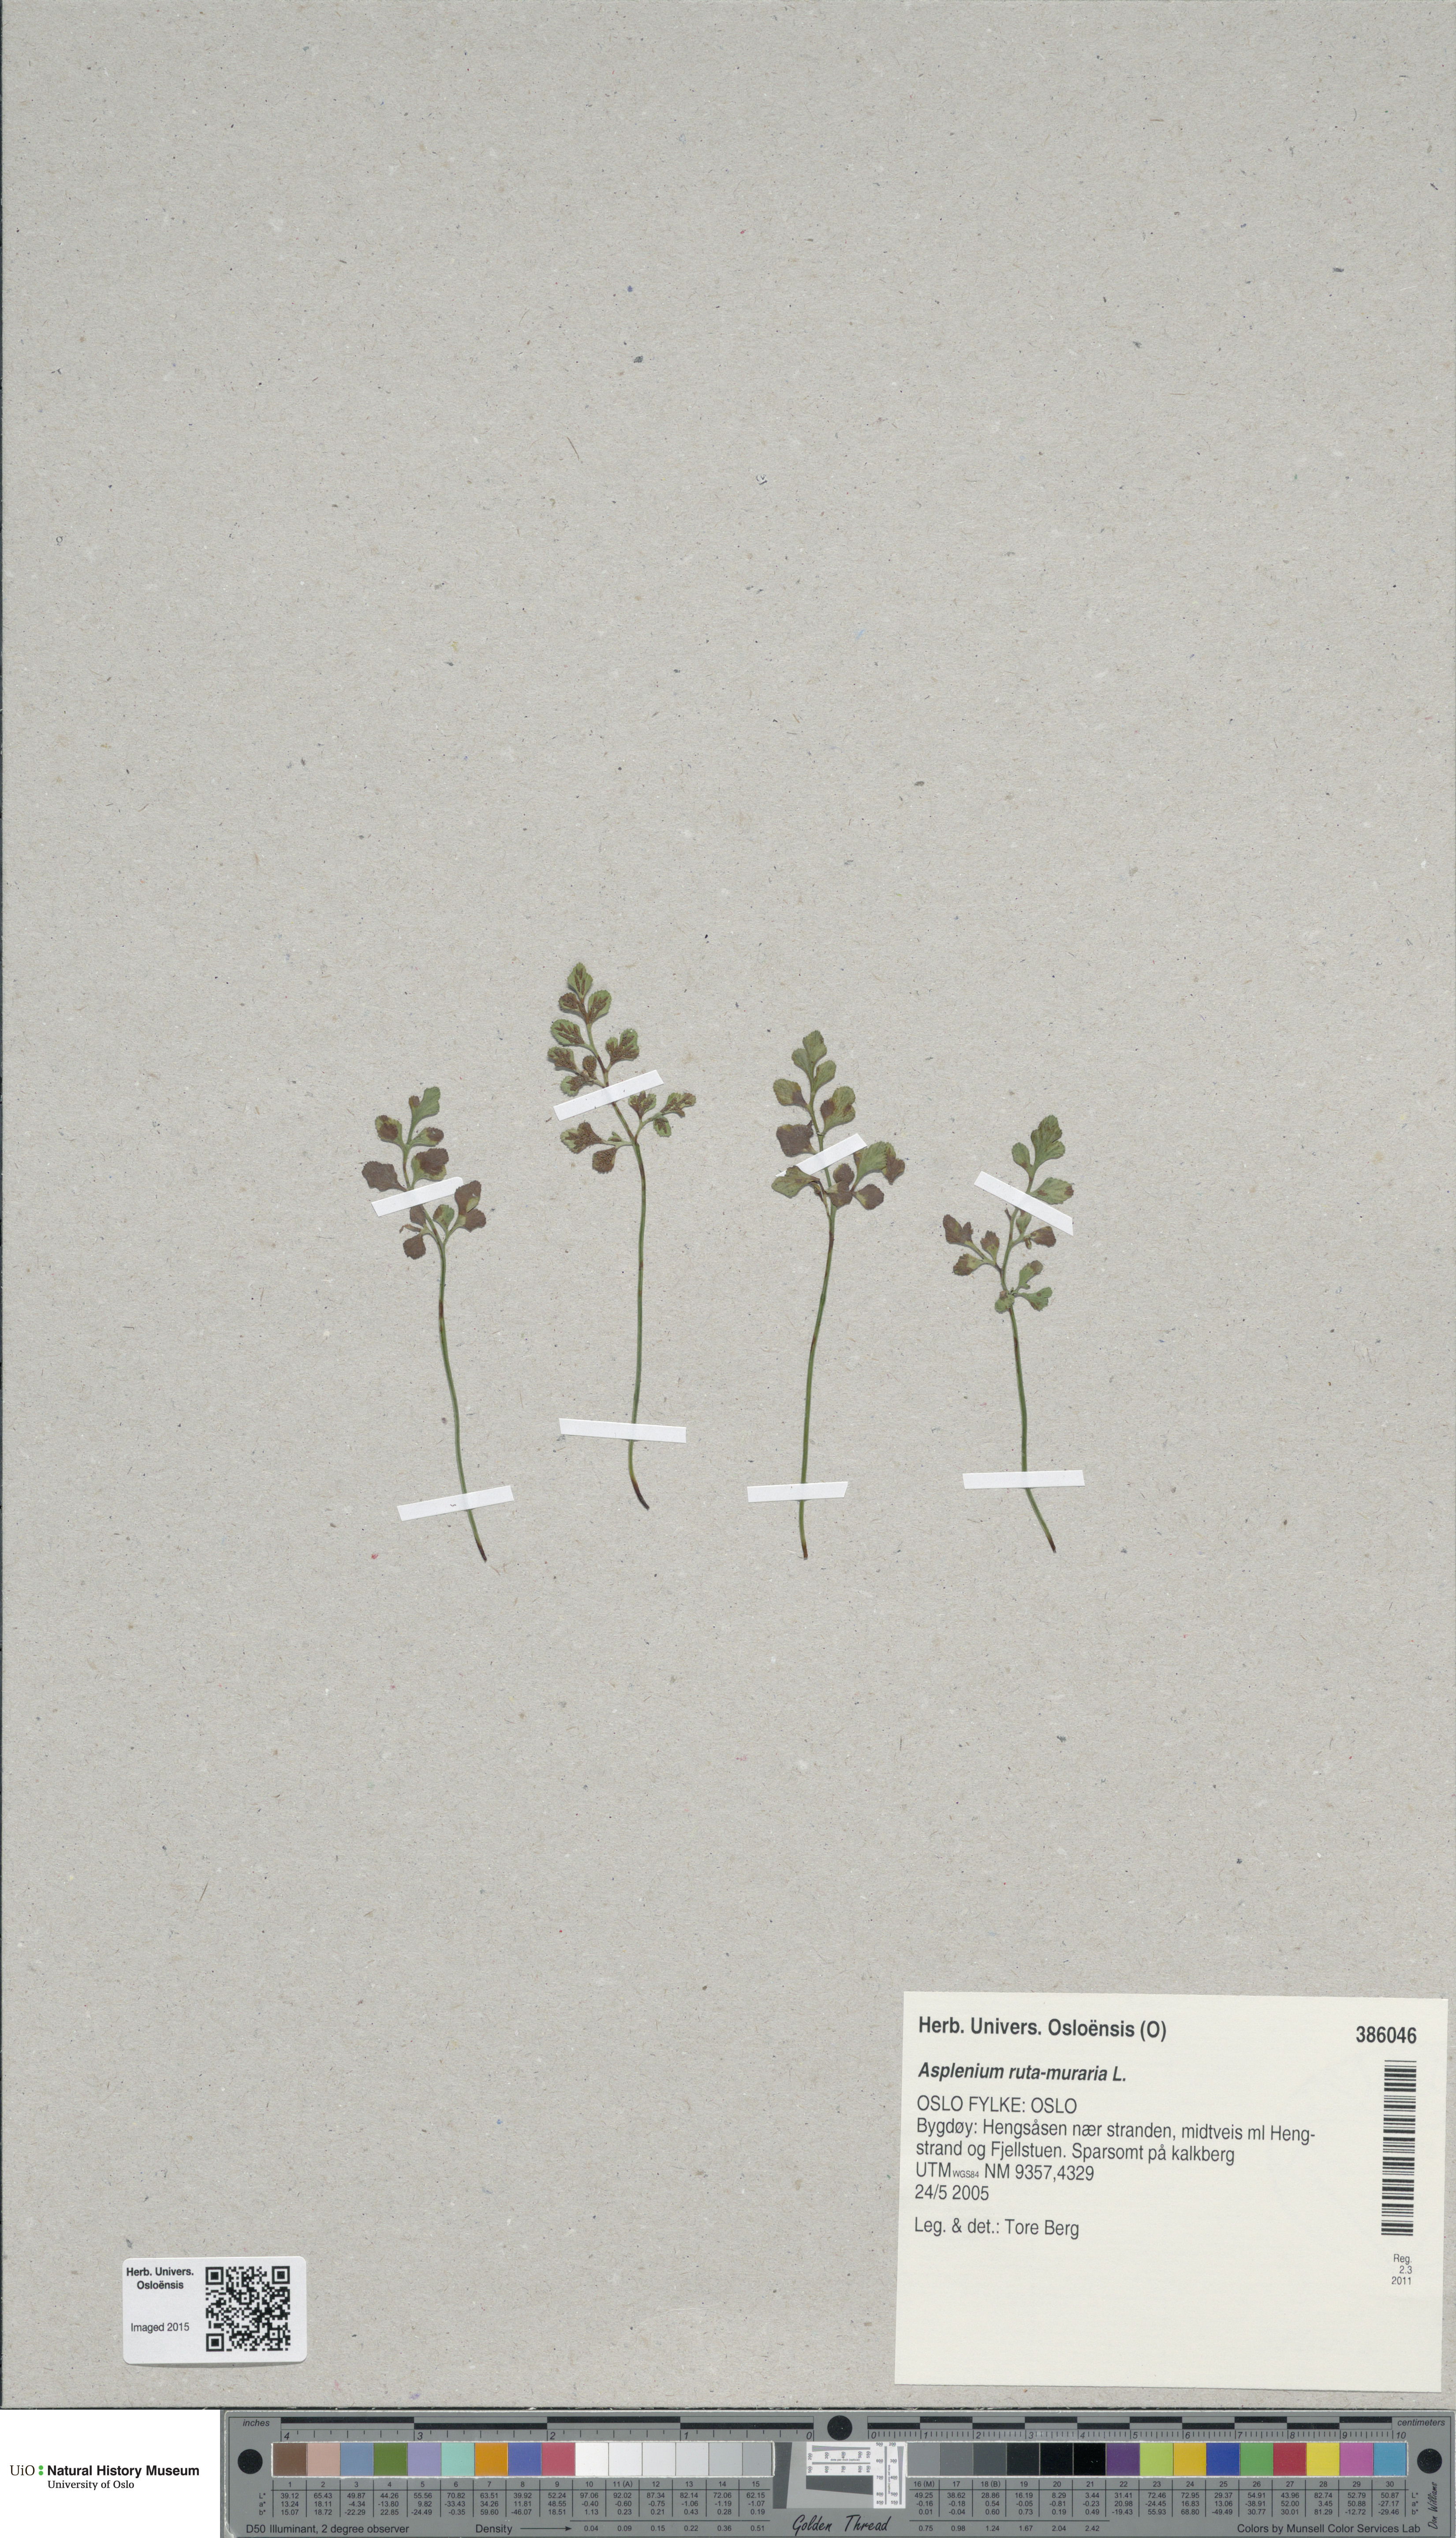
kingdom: Plantae
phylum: Tracheophyta
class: Polypodiopsida
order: Polypodiales
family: Aspleniaceae
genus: Asplenium
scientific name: Asplenium ruta-muraria
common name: Wall-rue
